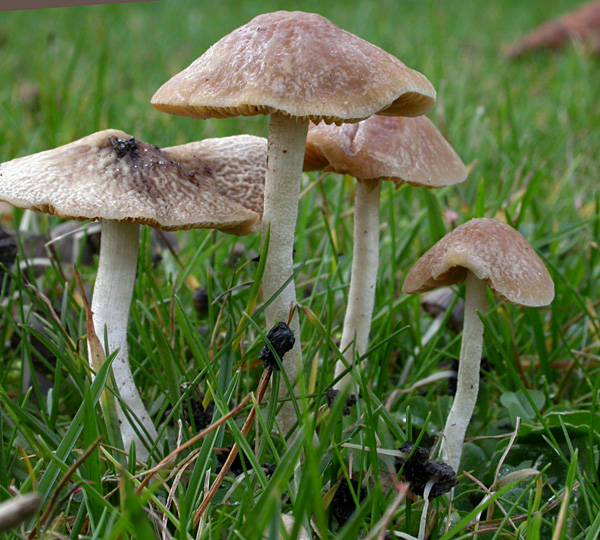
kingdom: Fungi
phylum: Basidiomycota
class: Agaricomycetes
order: Agaricales
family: Bolbitiaceae
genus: Conocybe
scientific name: Conocybe striipes
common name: knippe-dansehat
